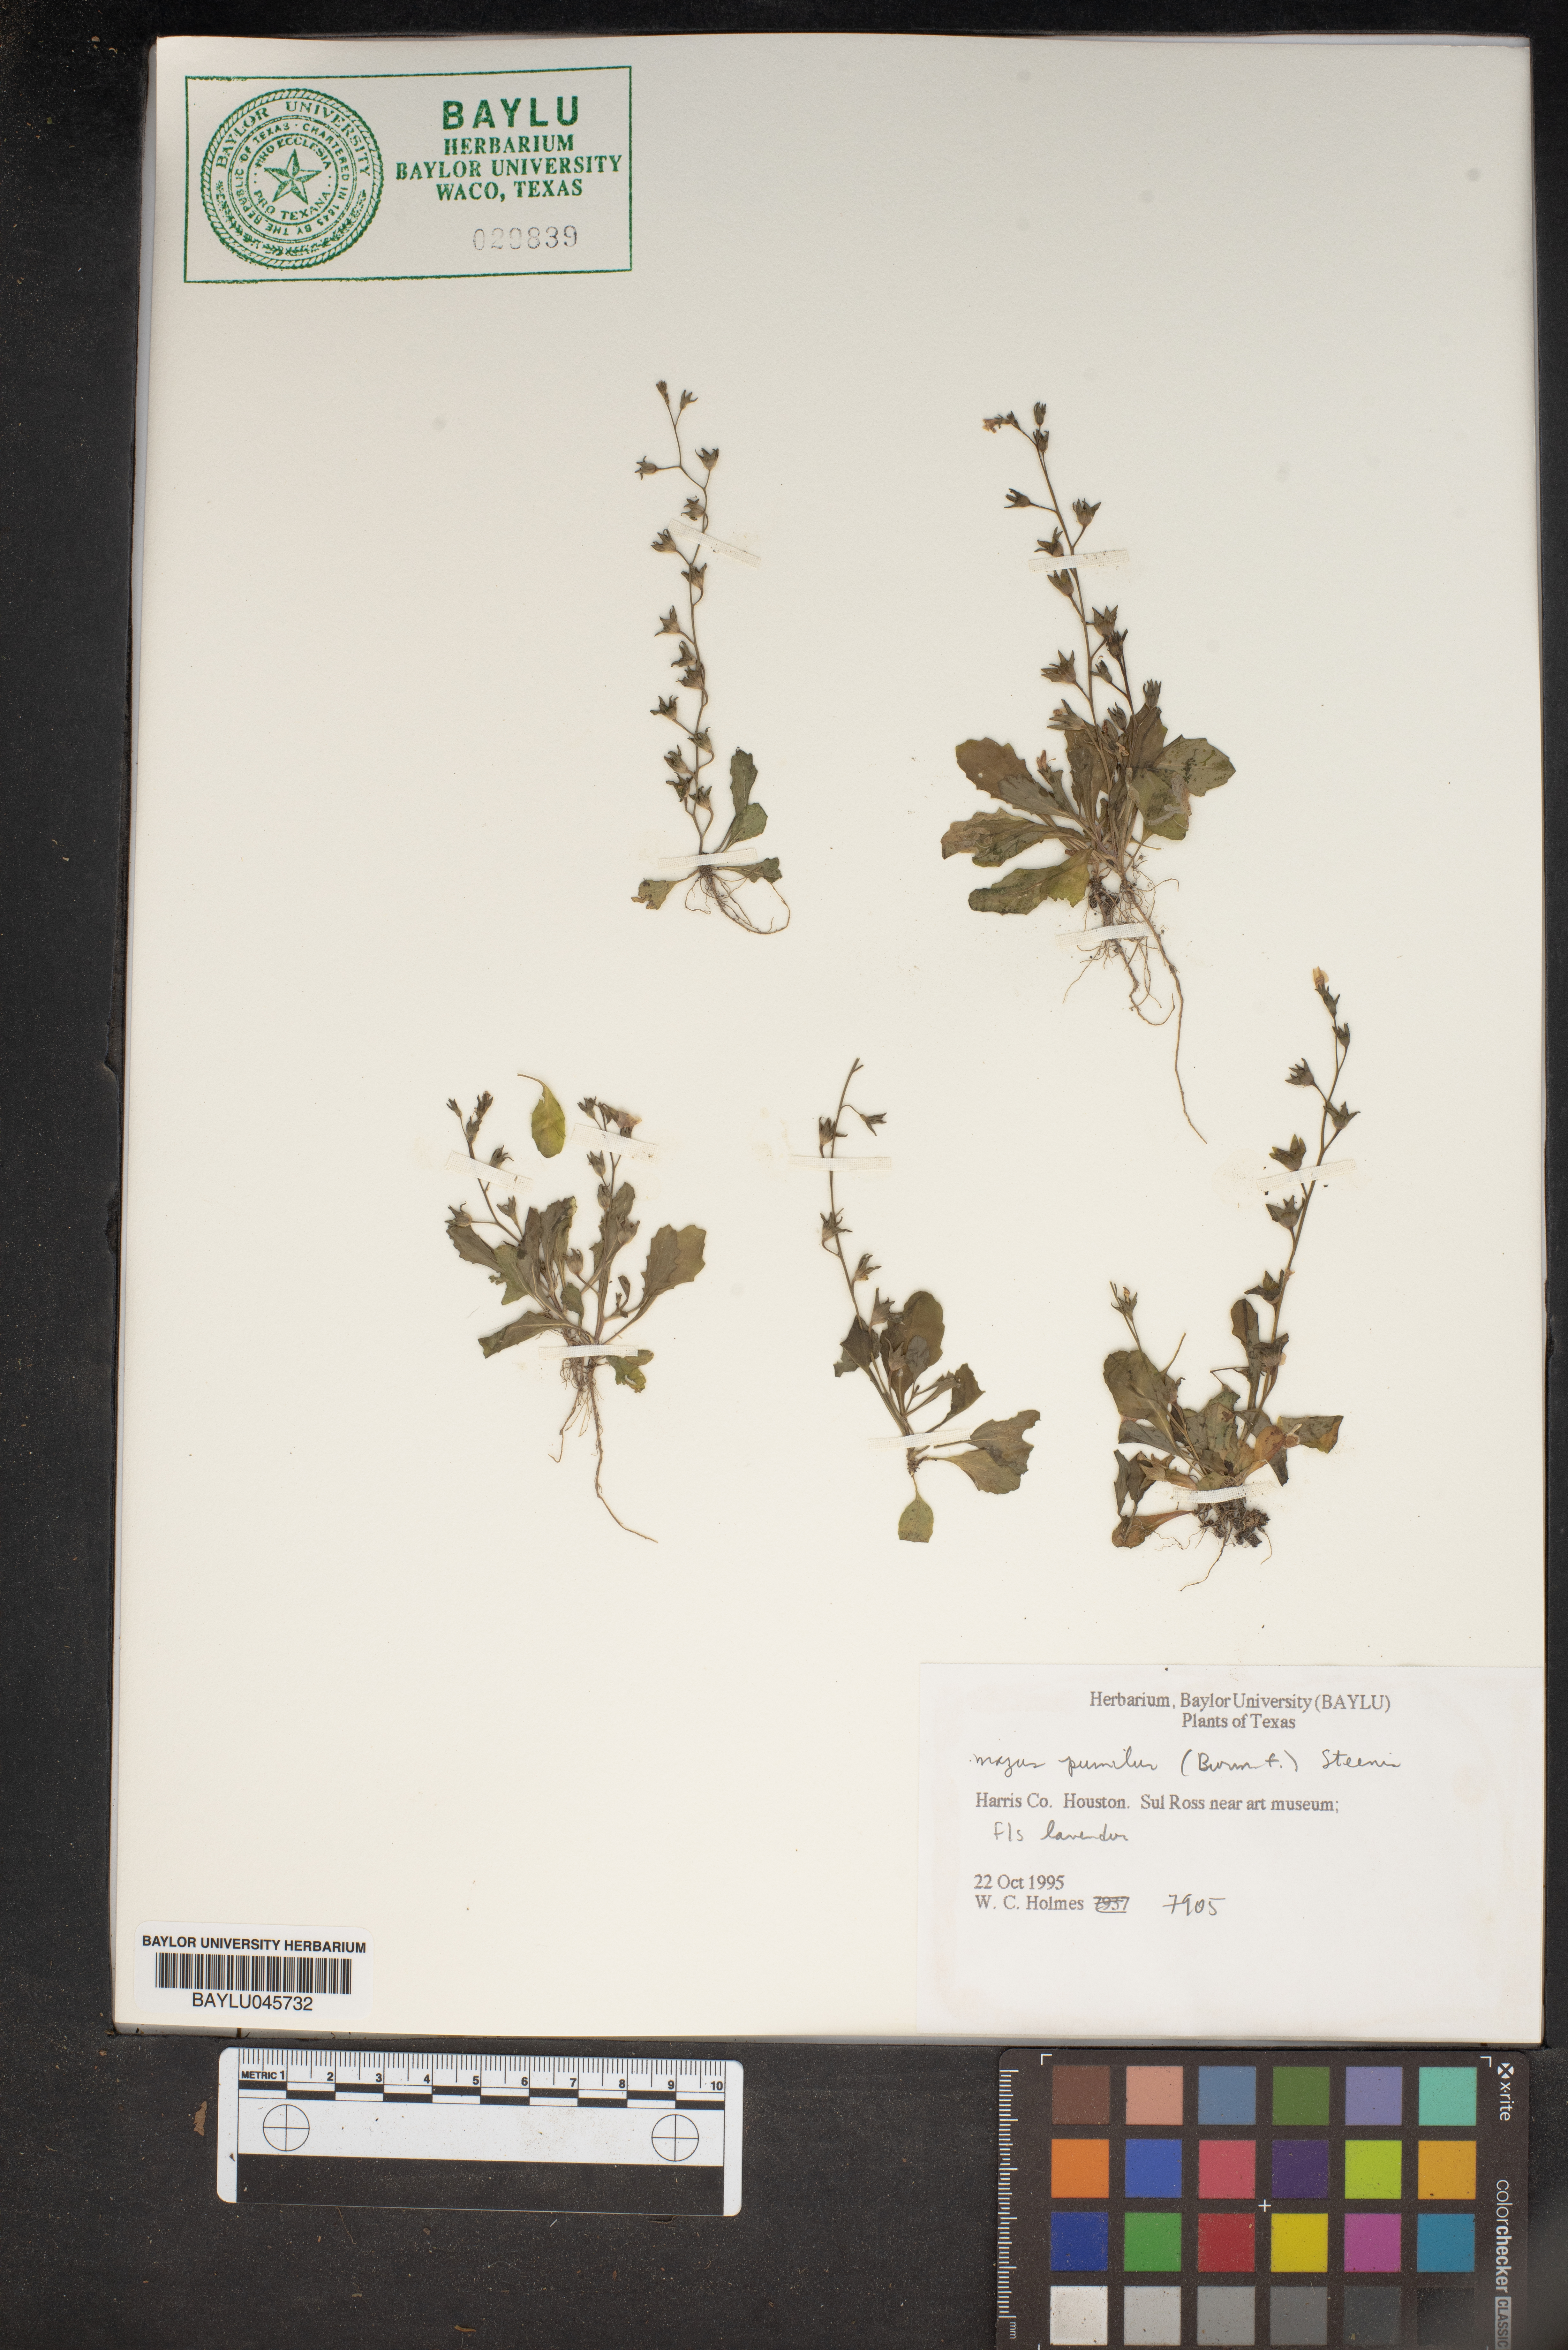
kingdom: Plantae
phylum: Tracheophyta
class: Magnoliopsida
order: Lamiales
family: Mazaceae
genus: Mazus
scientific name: Mazus pumilus
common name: Japanese mazus
